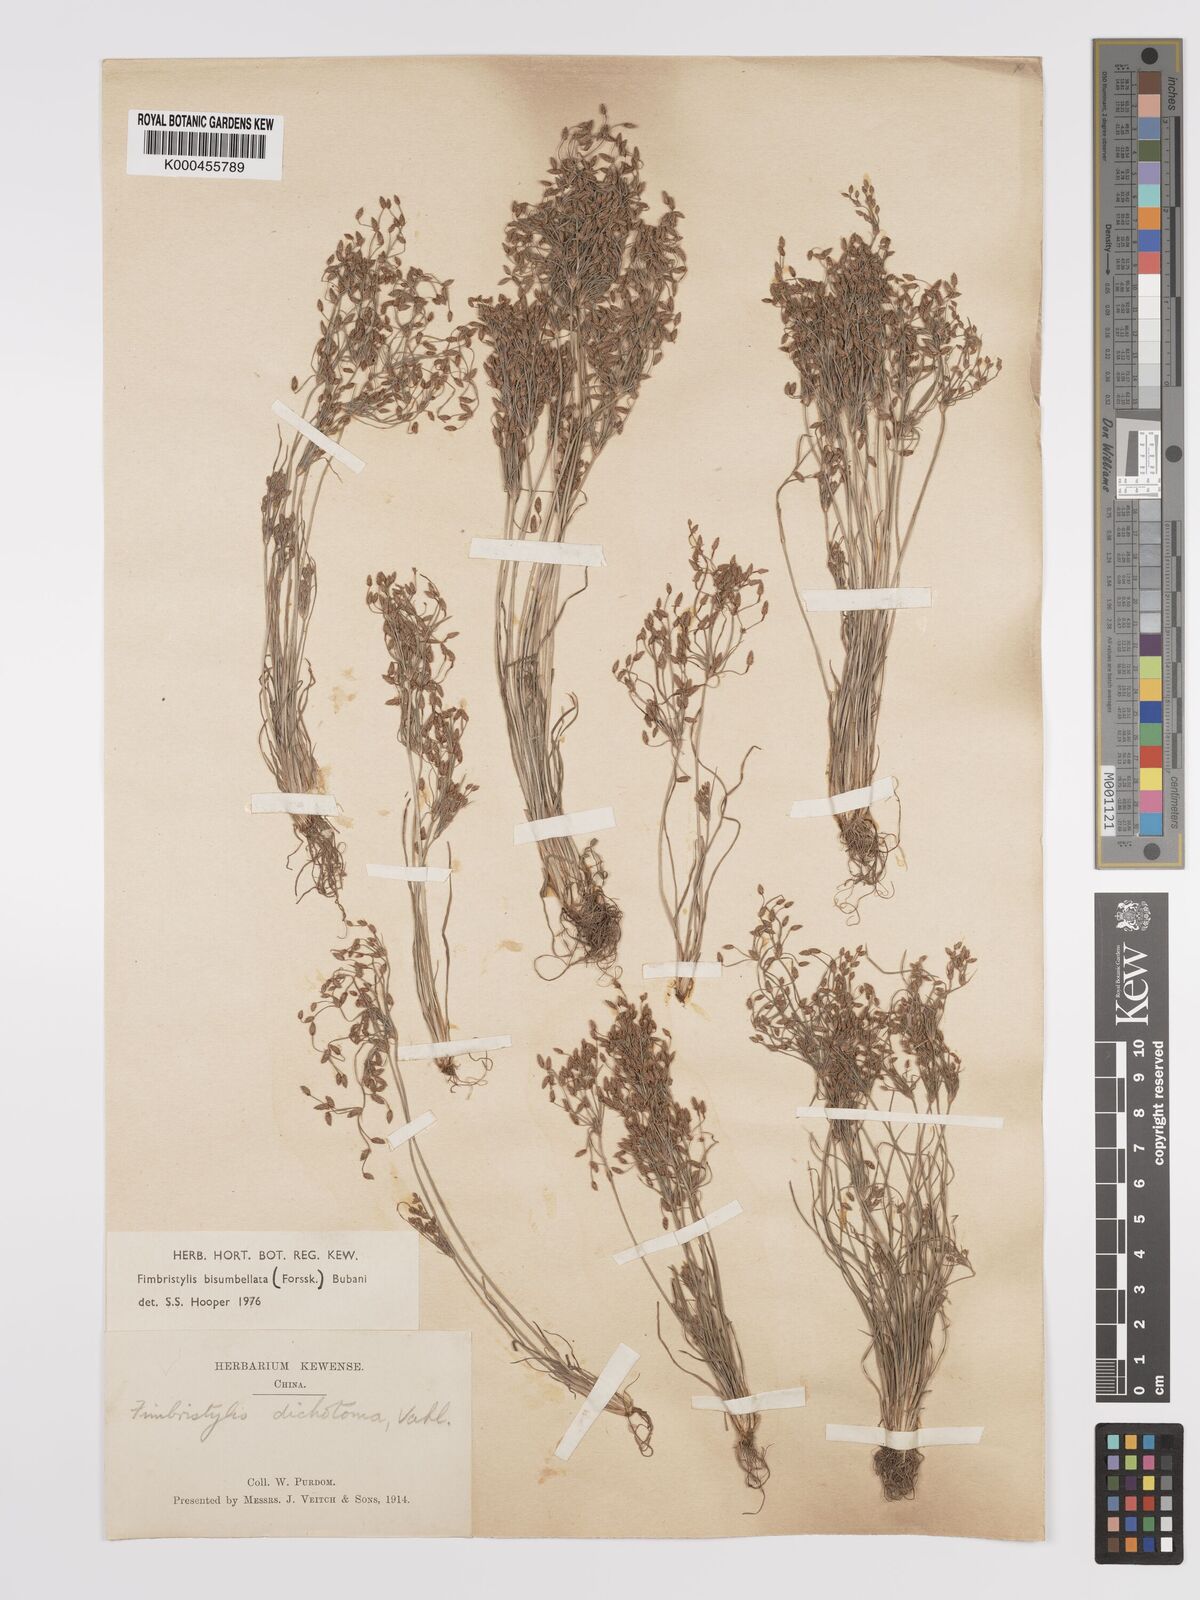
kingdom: Plantae
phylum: Tracheophyta
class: Liliopsida
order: Poales
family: Cyperaceae
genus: Fimbristylis
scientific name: Fimbristylis dichotoma
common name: Forked fimbry
